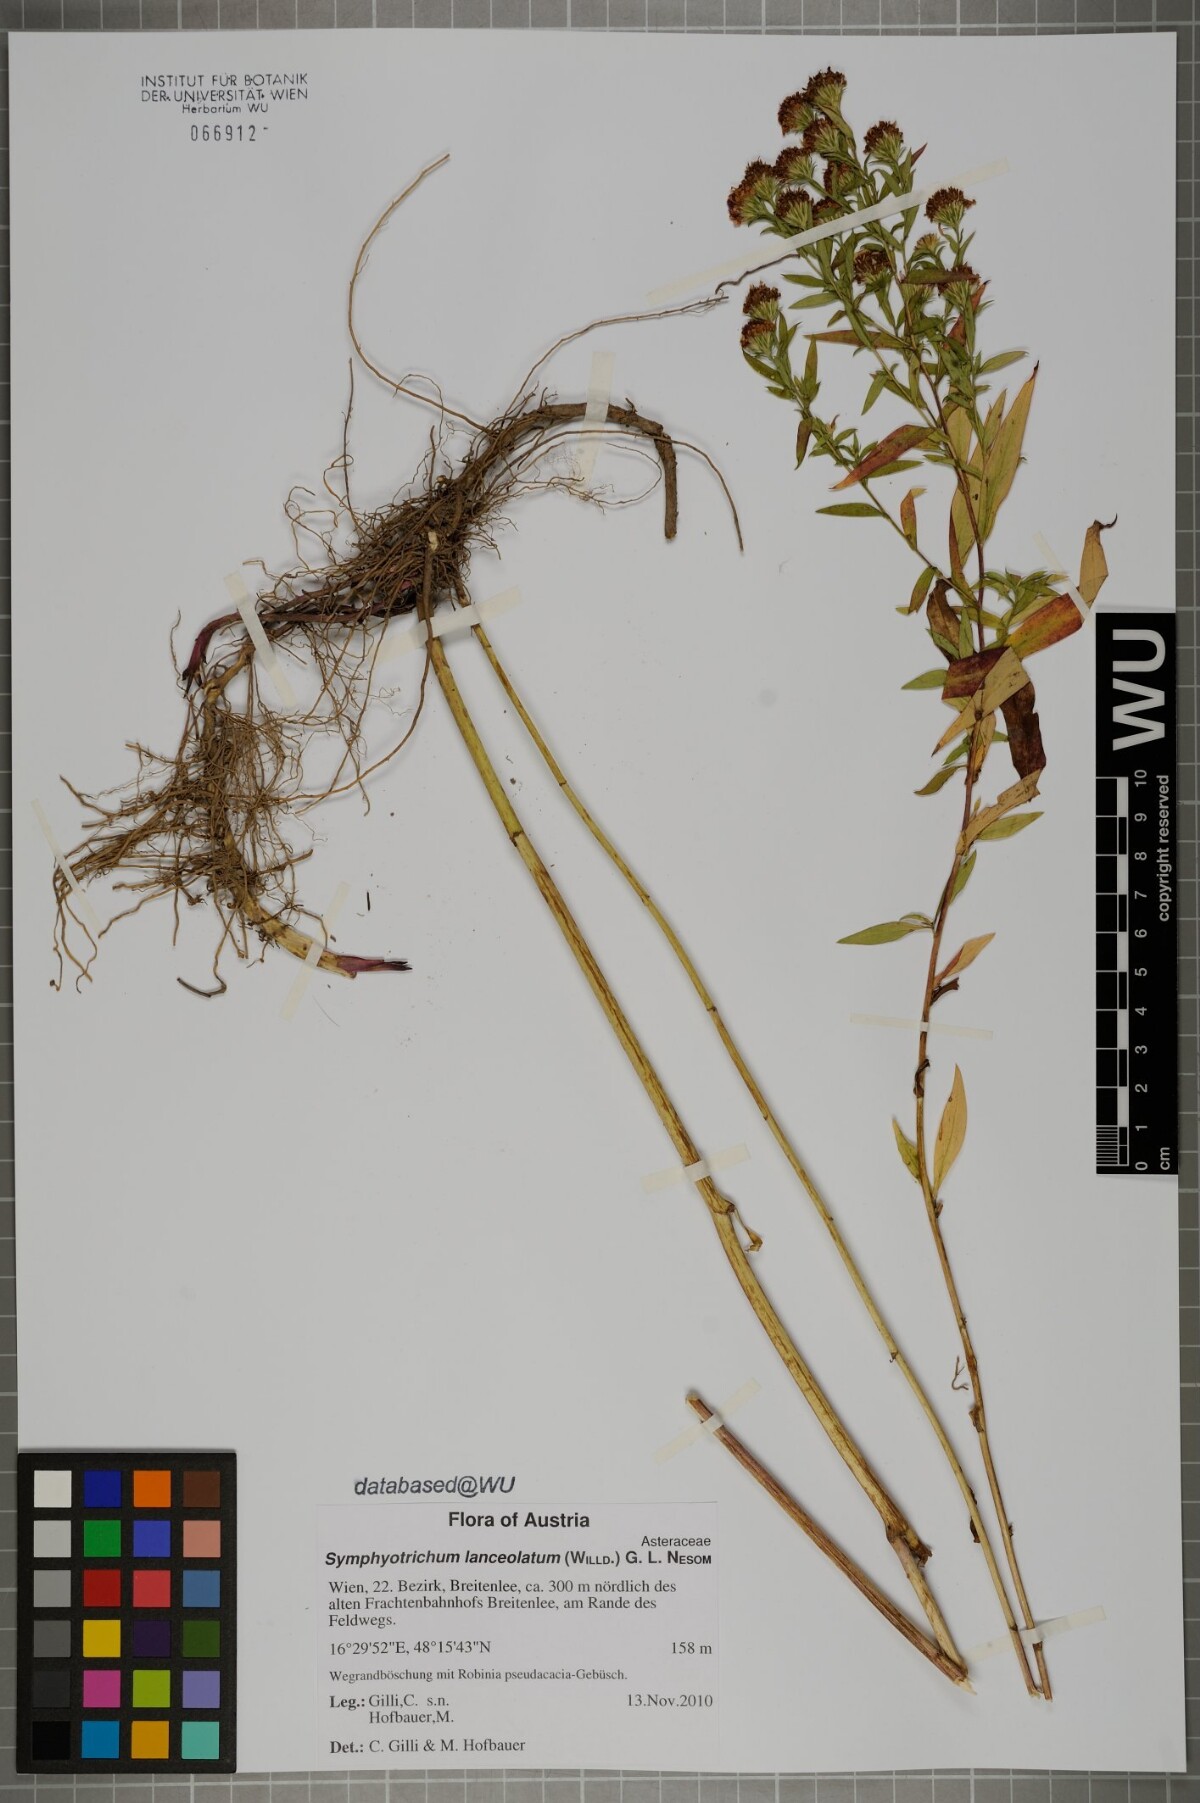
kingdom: Plantae
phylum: Tracheophyta
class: Magnoliopsida
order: Asterales
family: Asteraceae
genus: Symphyotrichum
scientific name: Symphyotrichum lanceolatum
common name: Panicled aster
